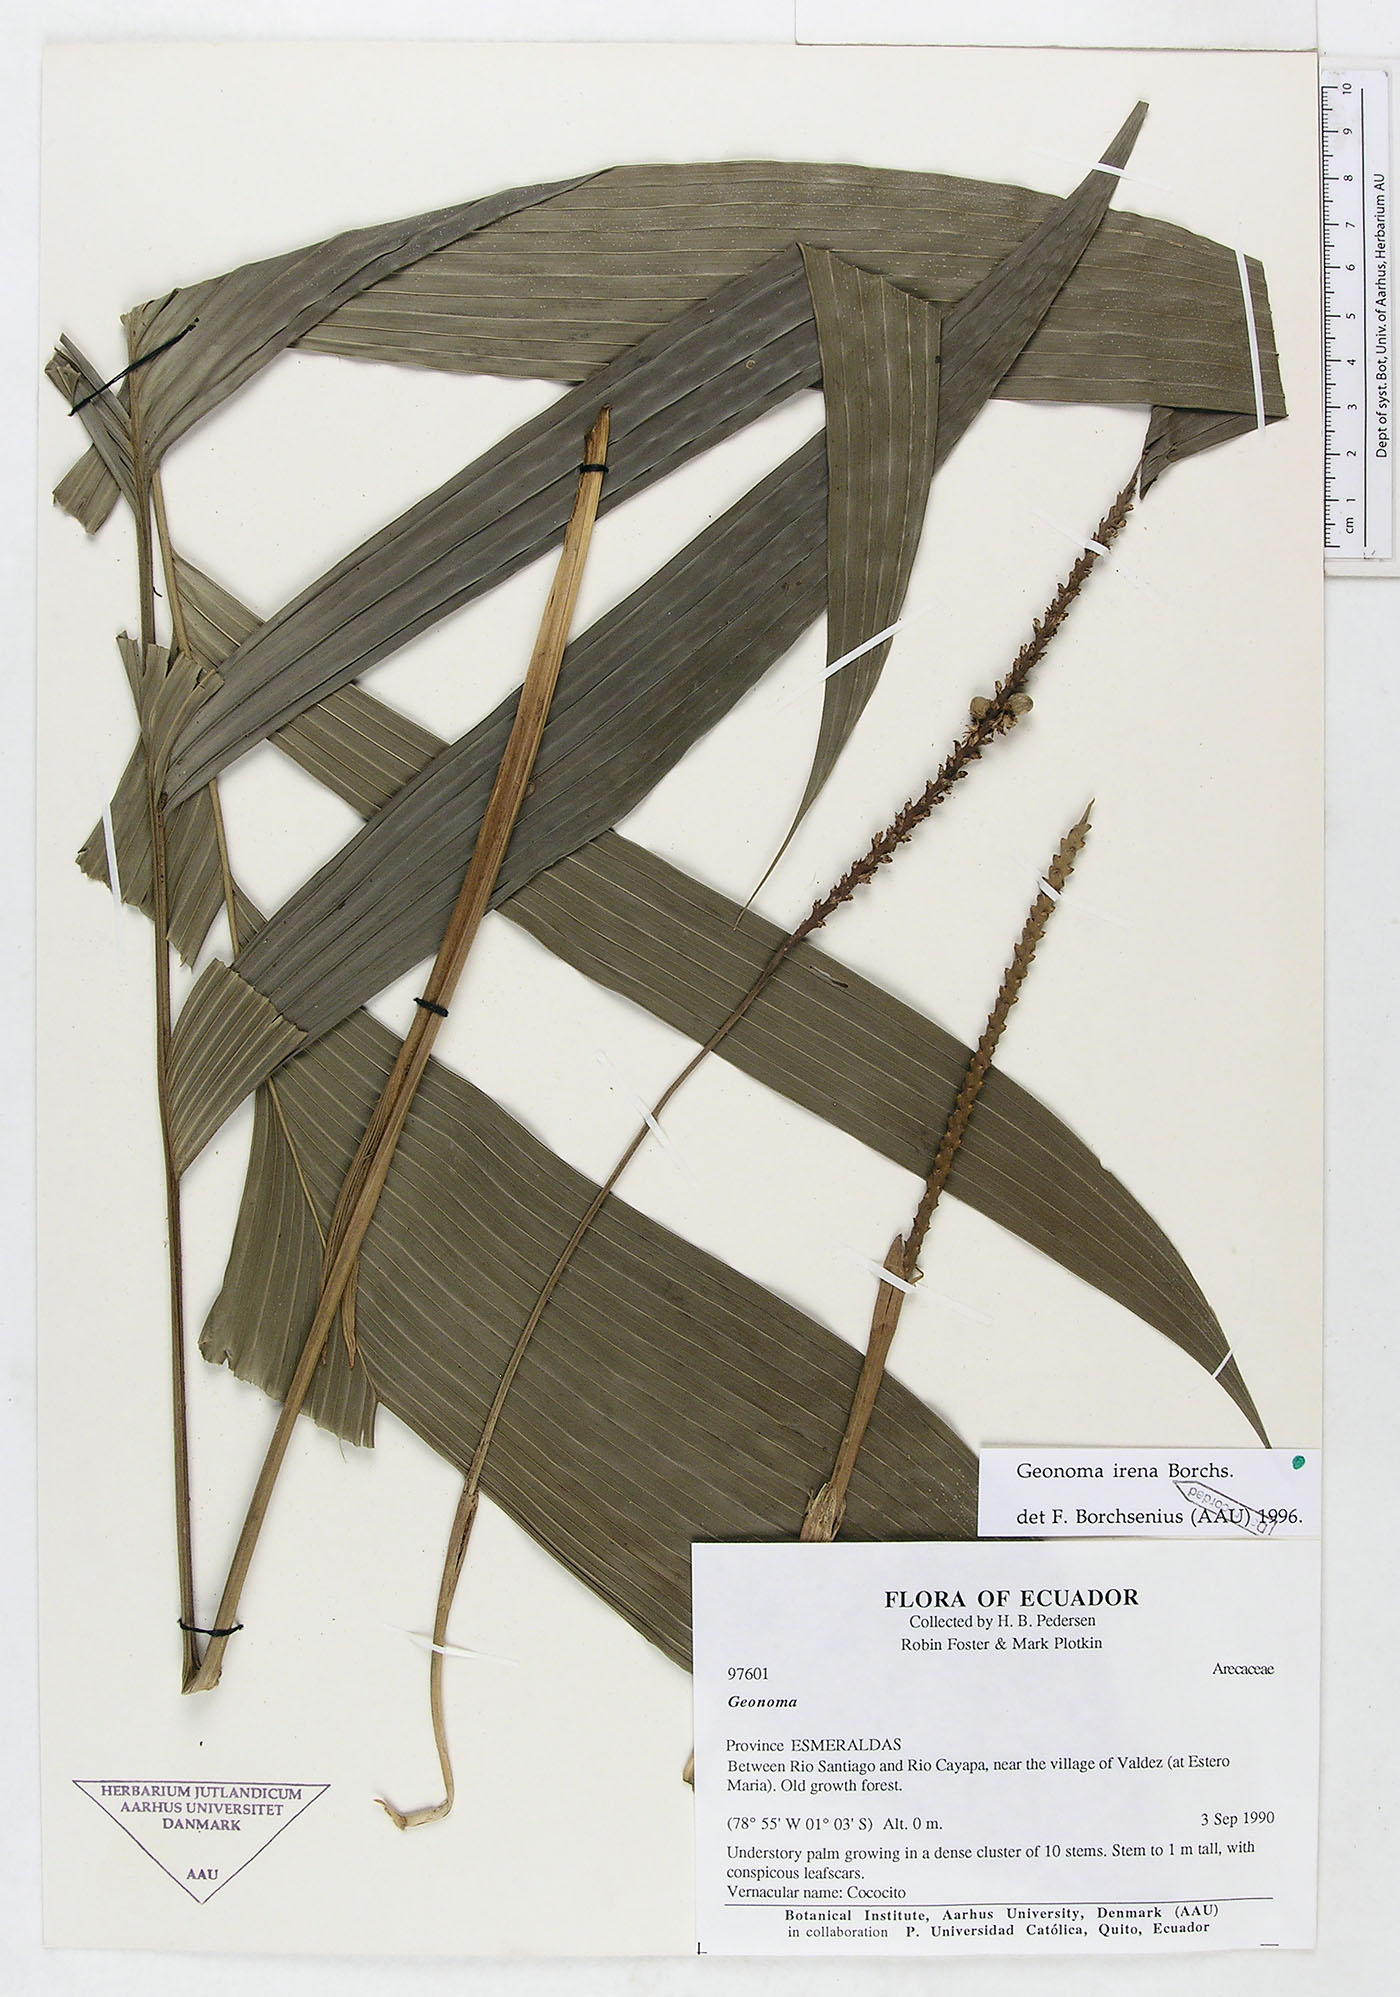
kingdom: Plantae
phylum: Tracheophyta
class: Liliopsida
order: Arecales
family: Arecaceae
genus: Geonoma
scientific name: Geonoma cuneata
